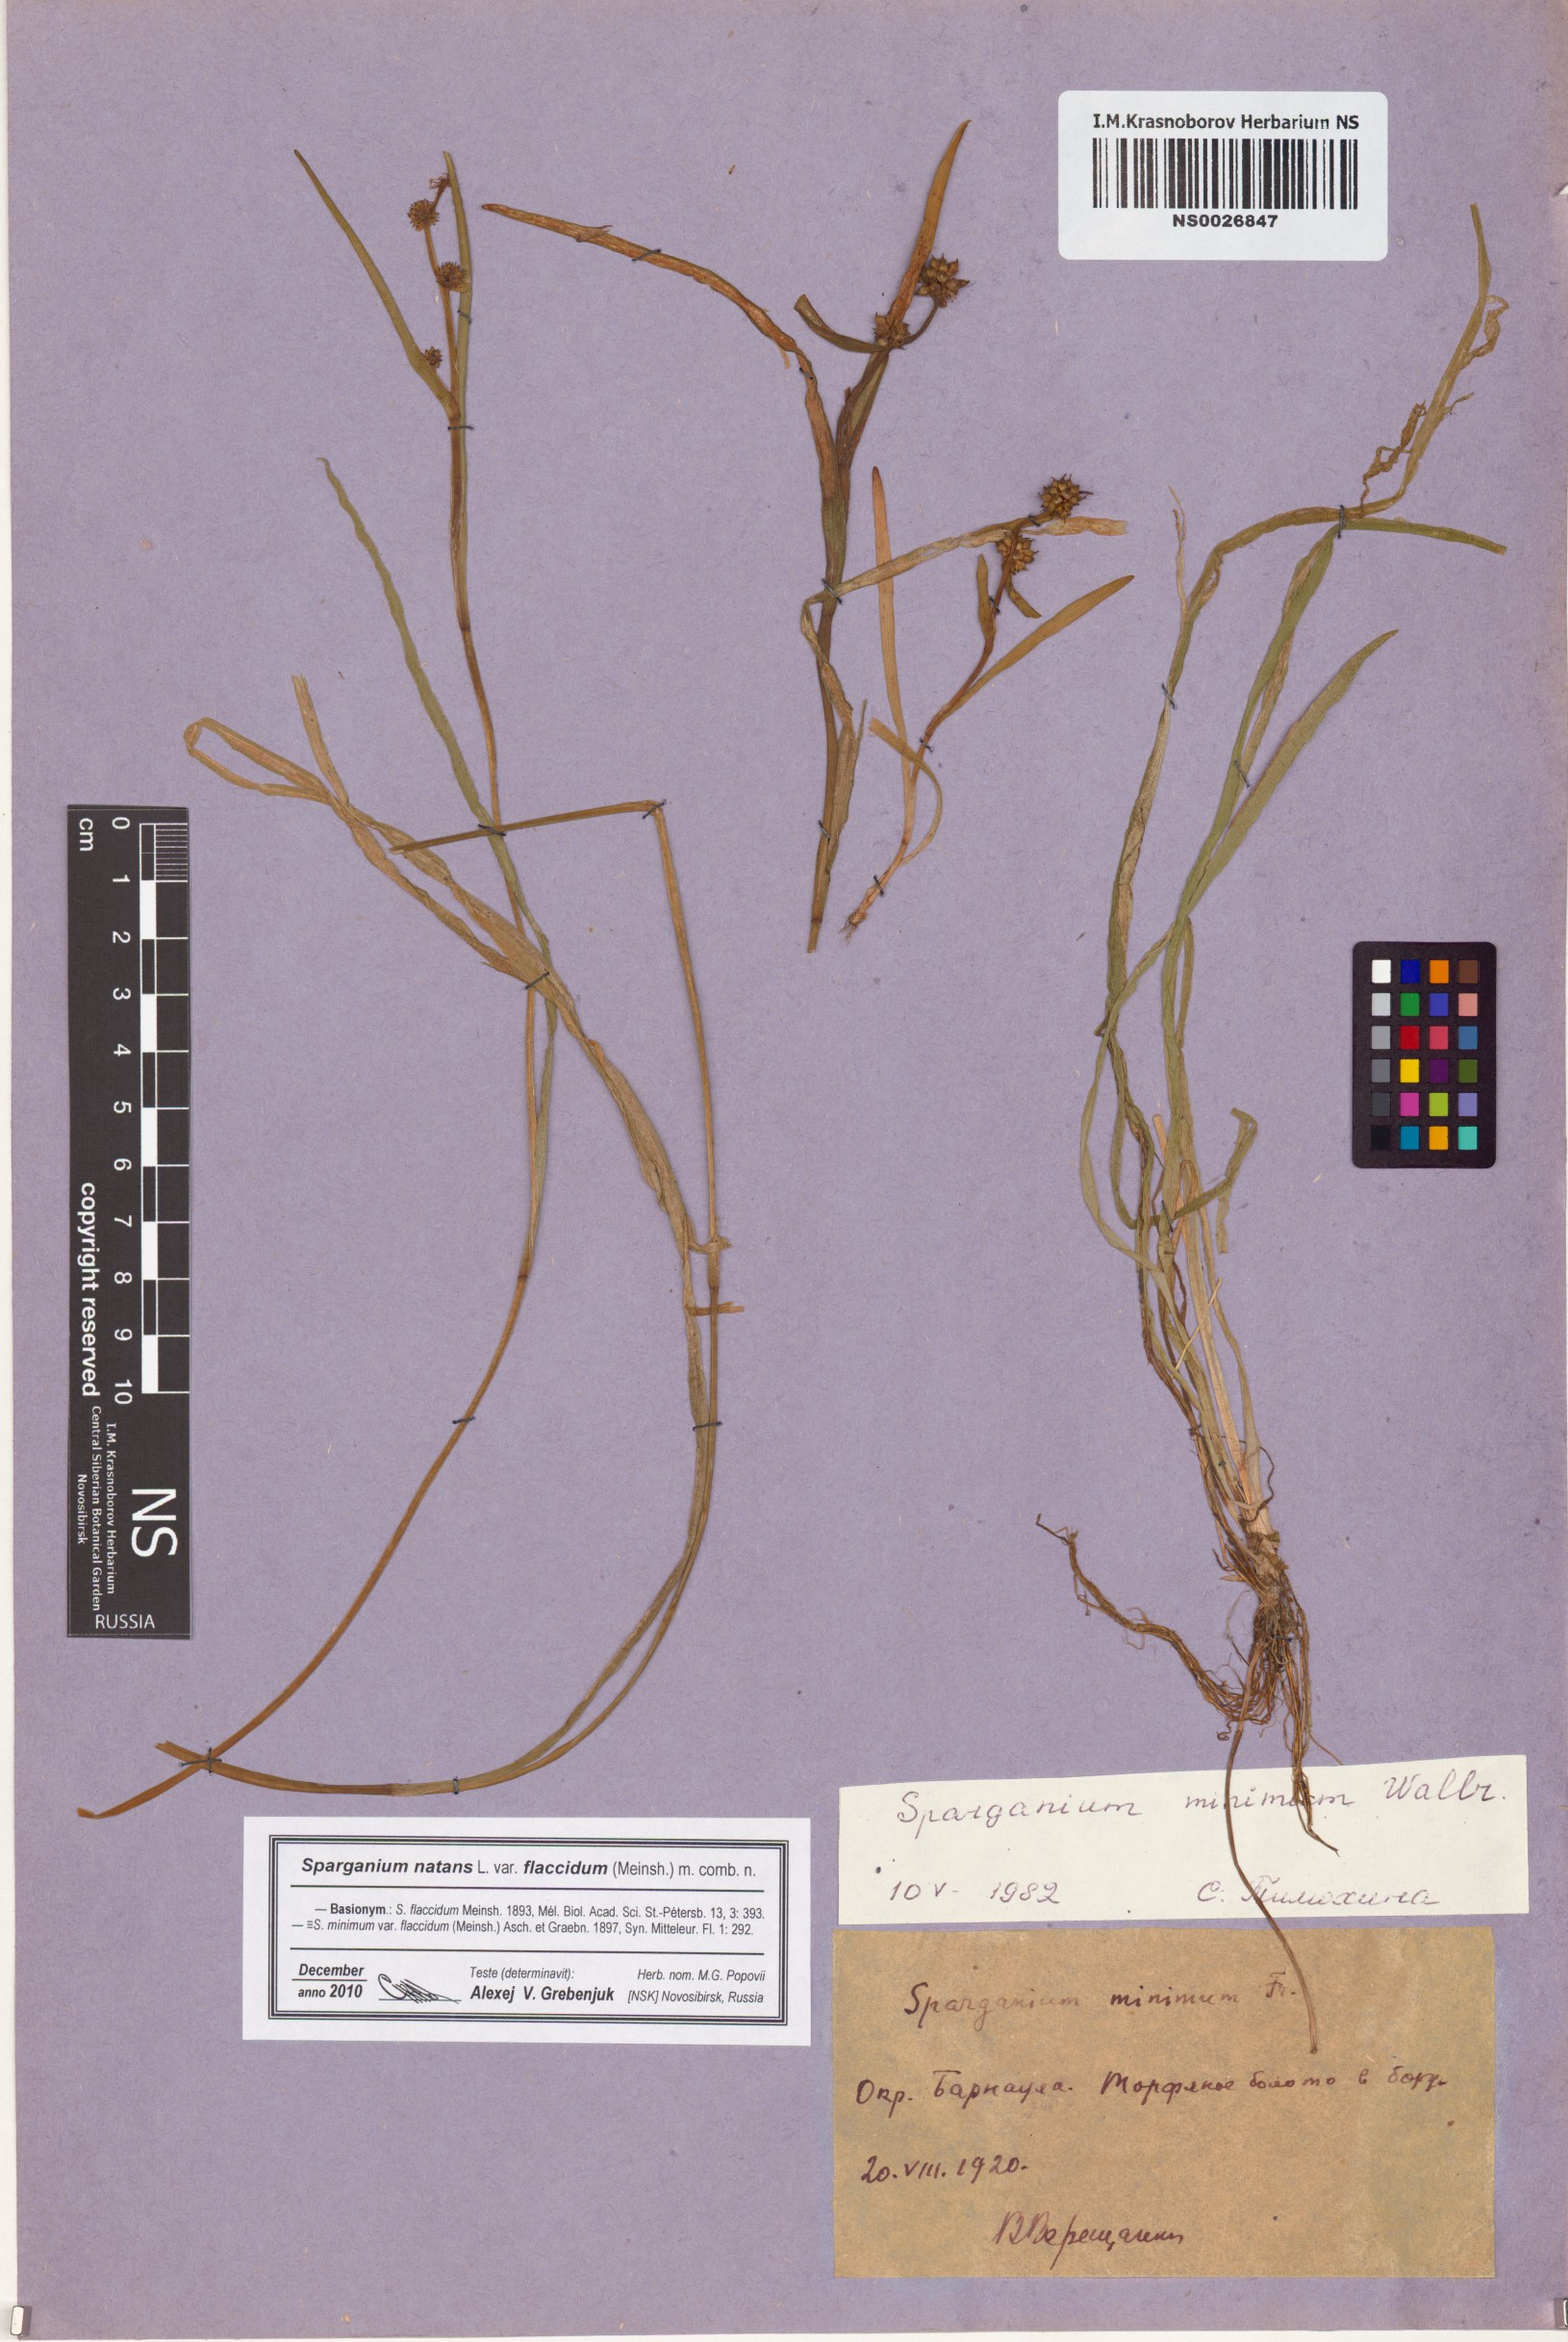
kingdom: Plantae
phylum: Tracheophyta
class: Liliopsida
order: Poales
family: Typhaceae
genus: Sparganium
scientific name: Sparganium natans
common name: Least bur-reed
